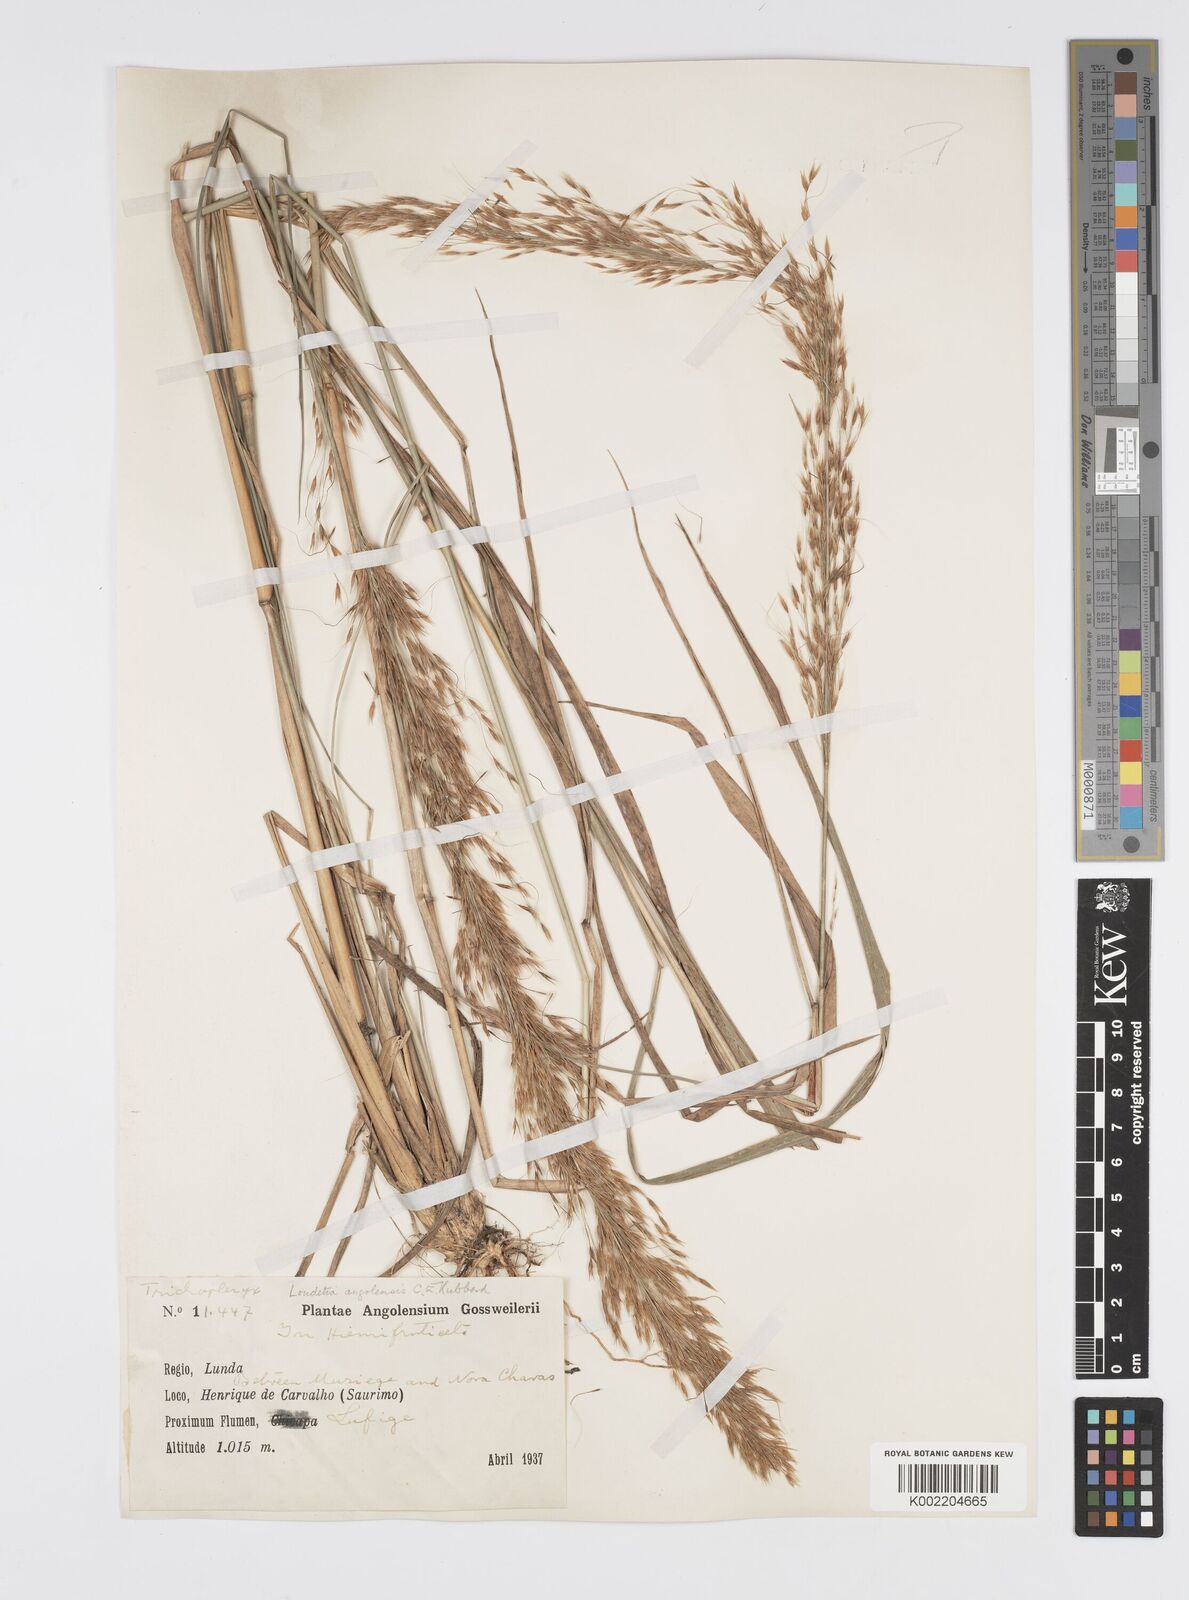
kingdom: Plantae
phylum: Tracheophyta
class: Liliopsida
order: Poales
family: Poaceae
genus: Loudetia
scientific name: Loudetia angolensis
